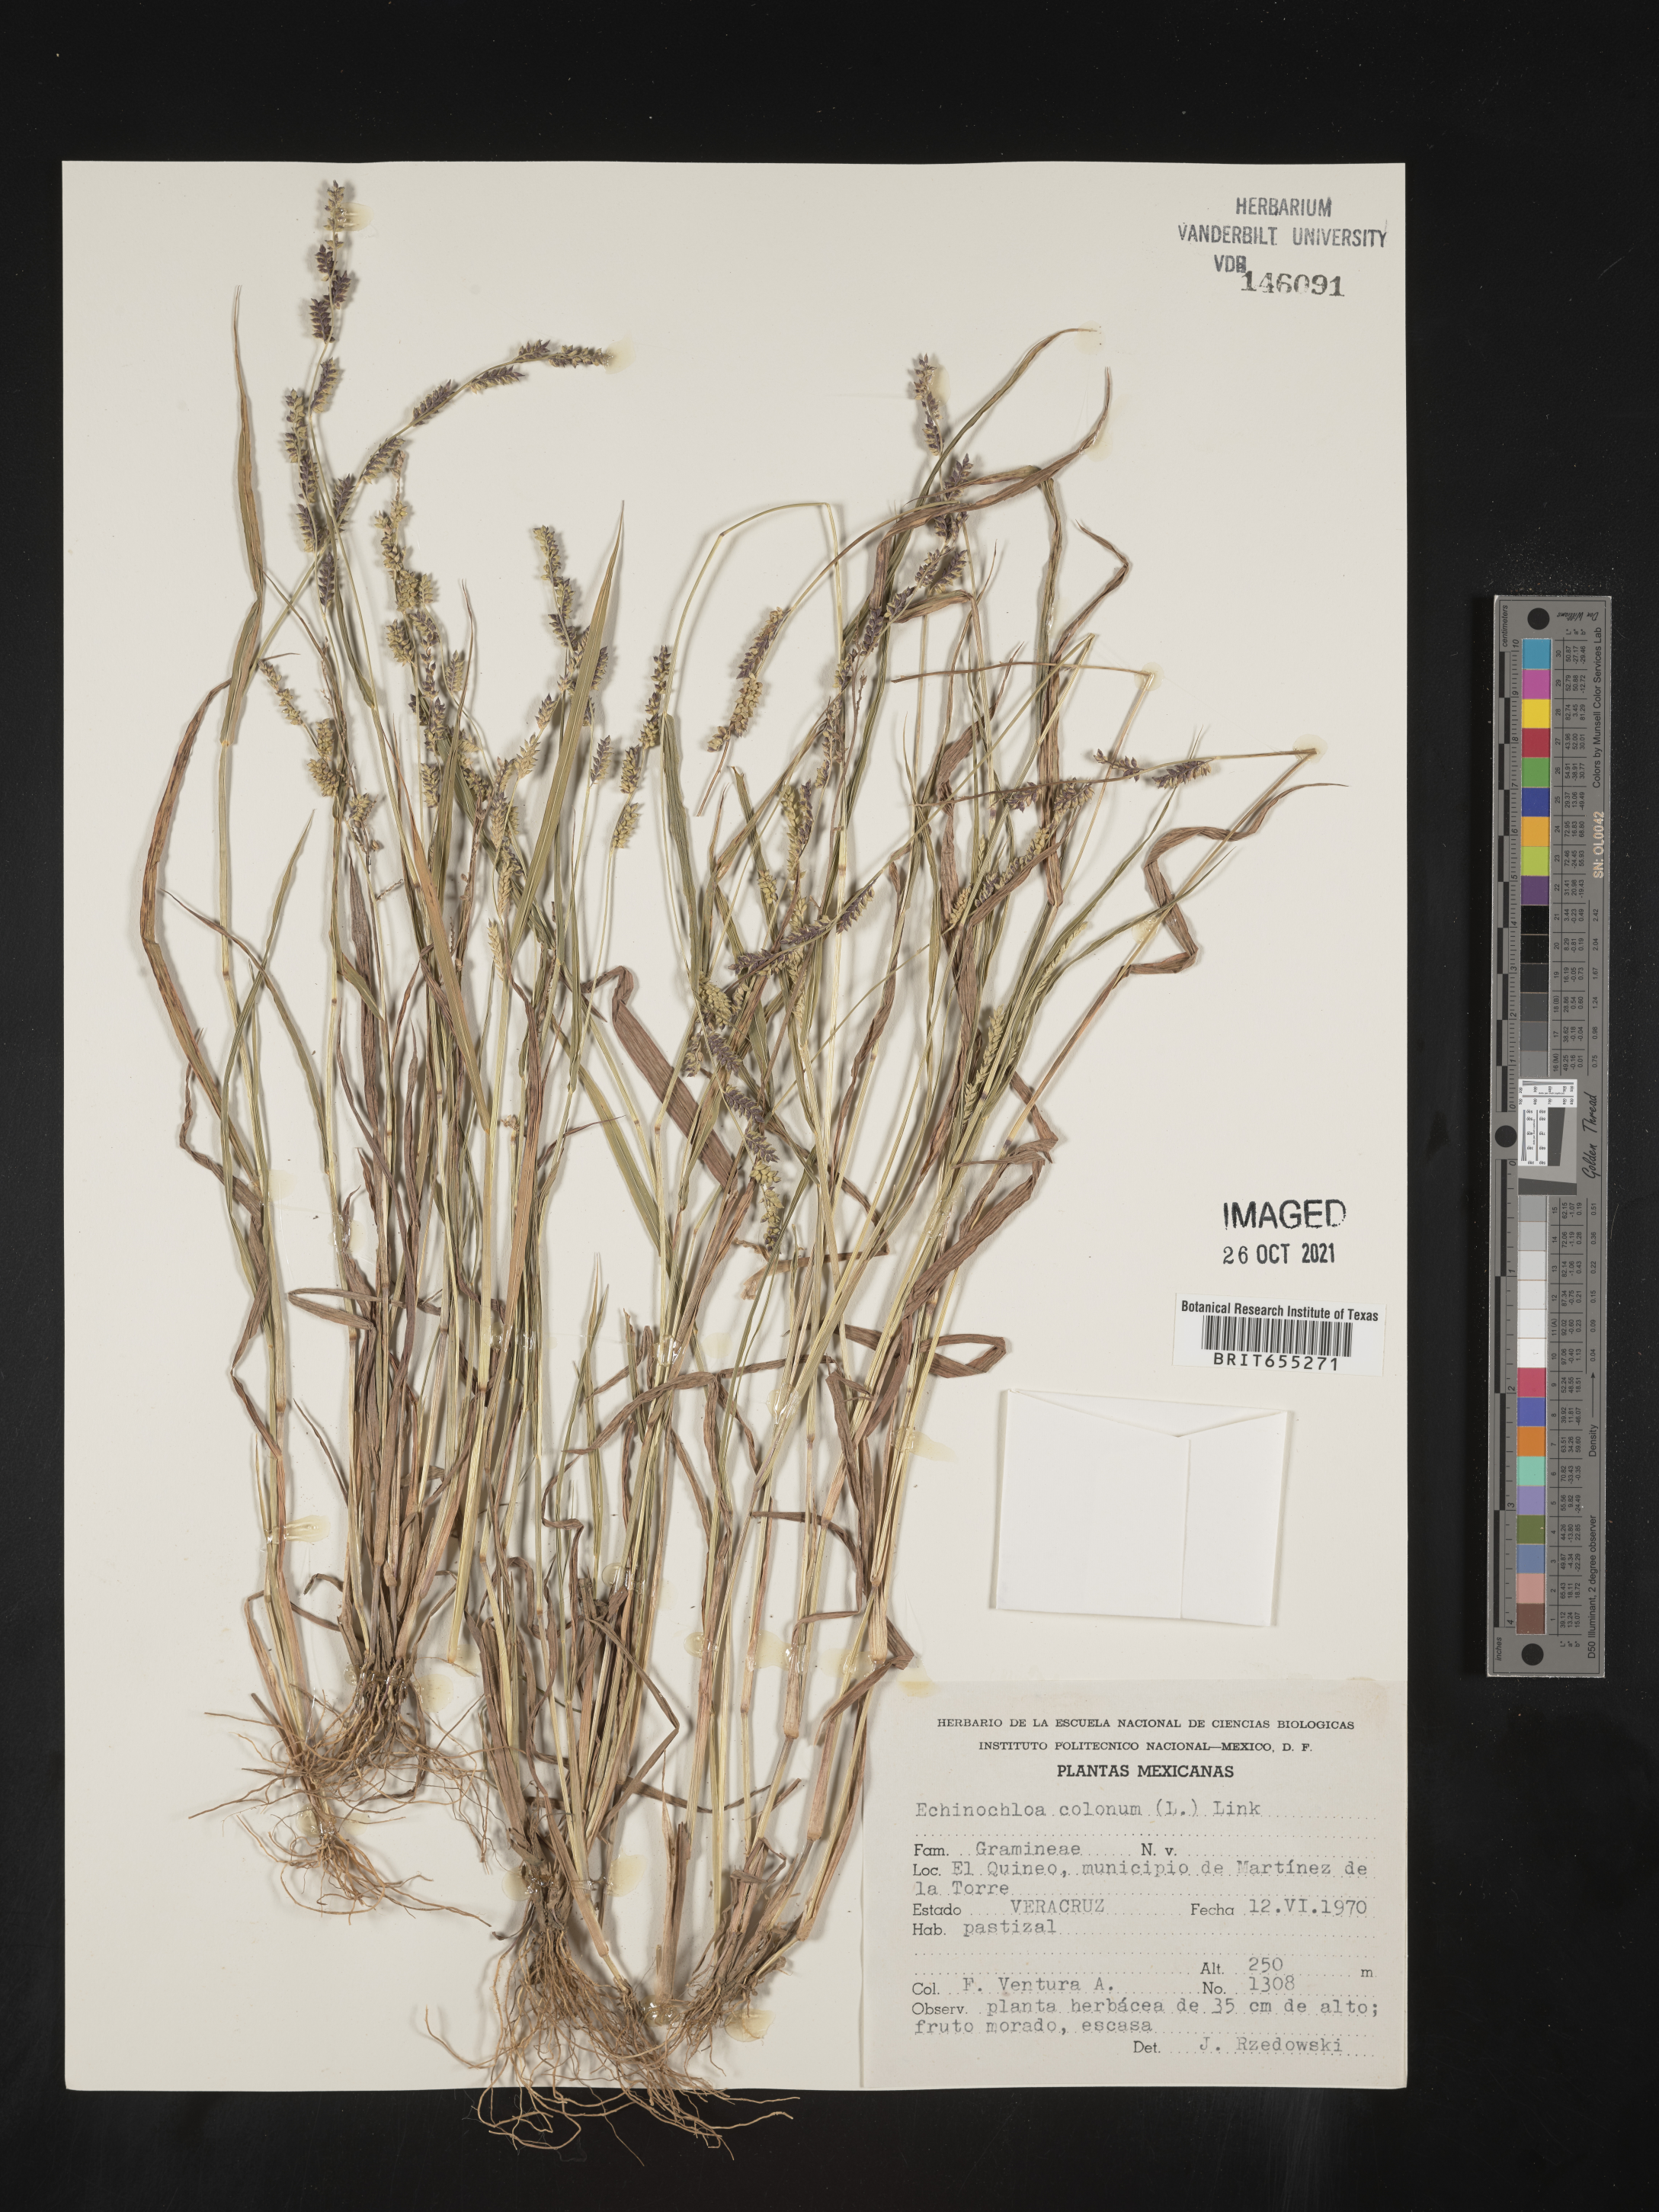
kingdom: Plantae
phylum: Tracheophyta
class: Liliopsida
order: Poales
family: Poaceae
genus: Echinochloa
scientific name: Echinochloa
